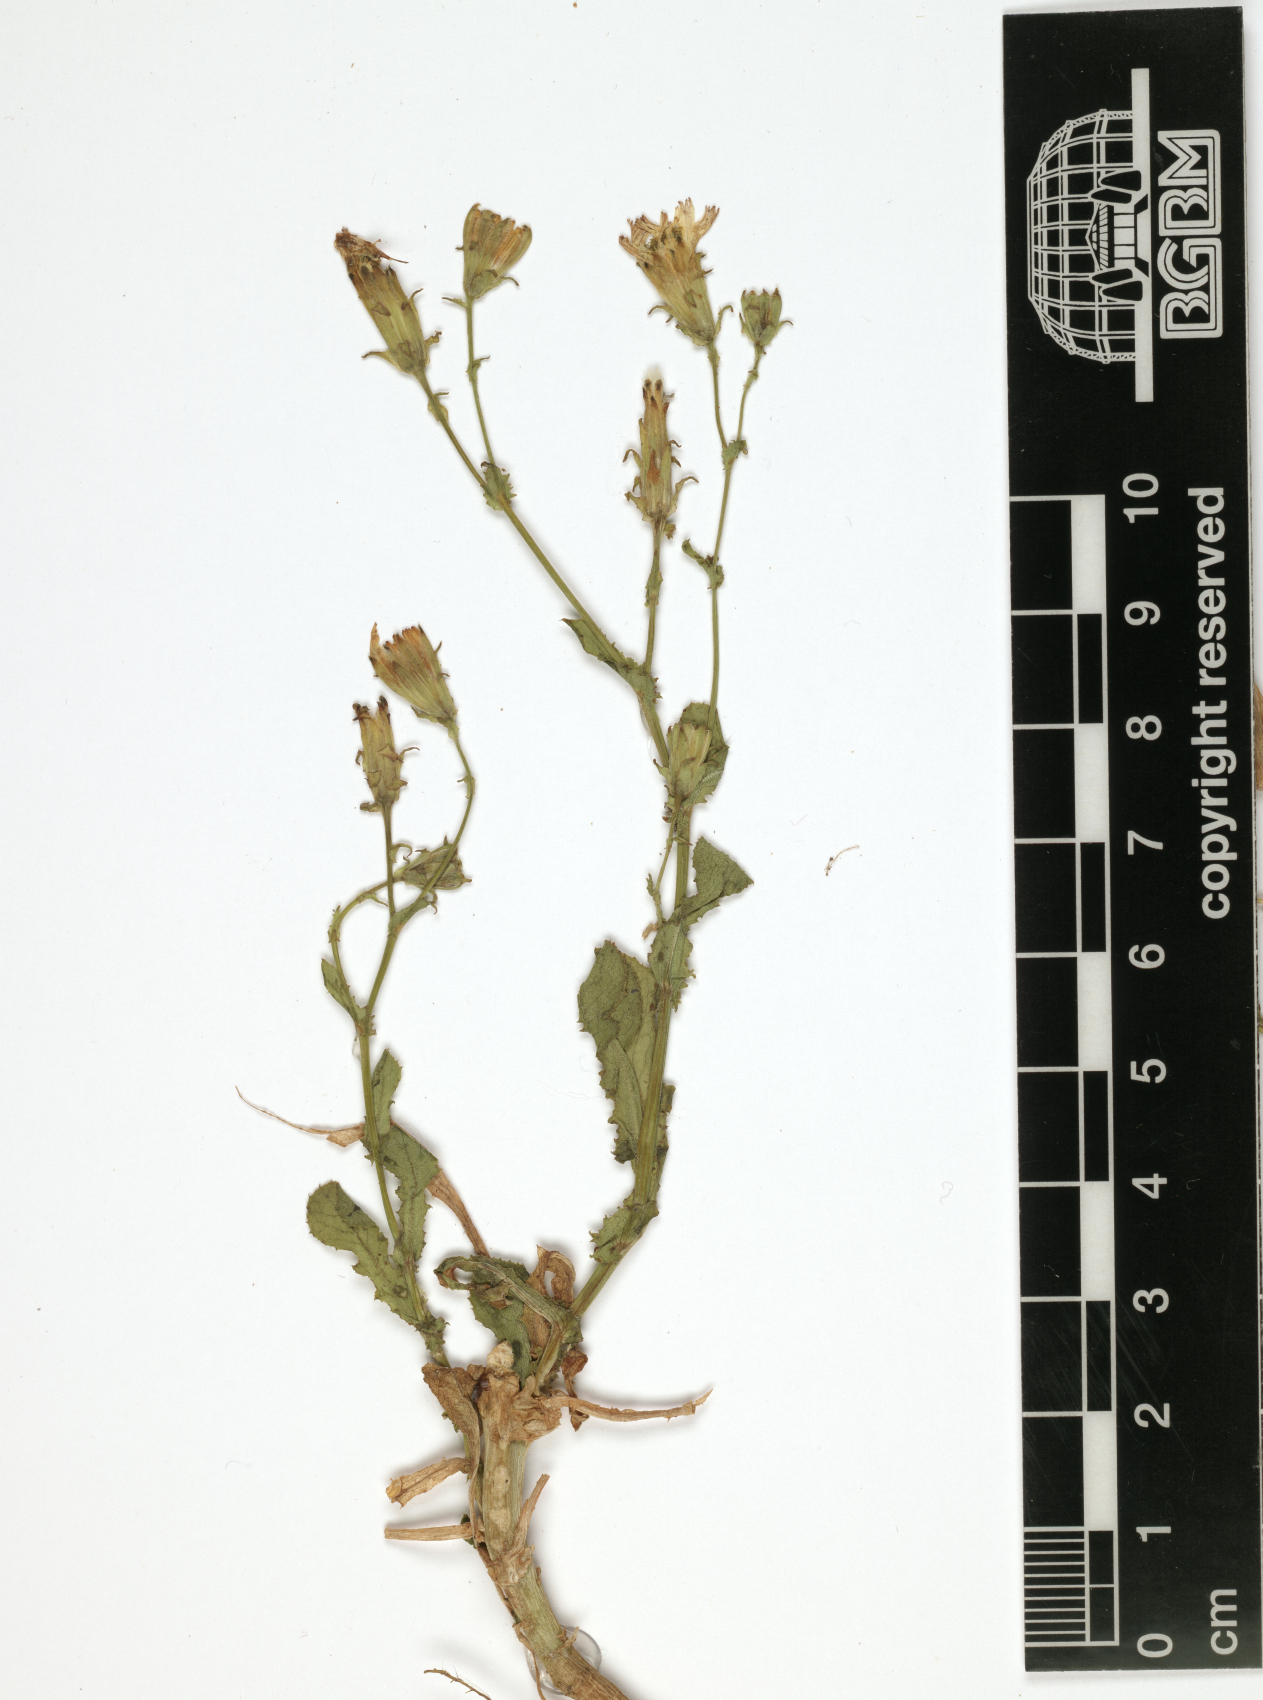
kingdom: Plantae
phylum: Tracheophyta
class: Magnoliopsida
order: Asterales
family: Asteraceae
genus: Launaea
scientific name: Launaea crassifolia
